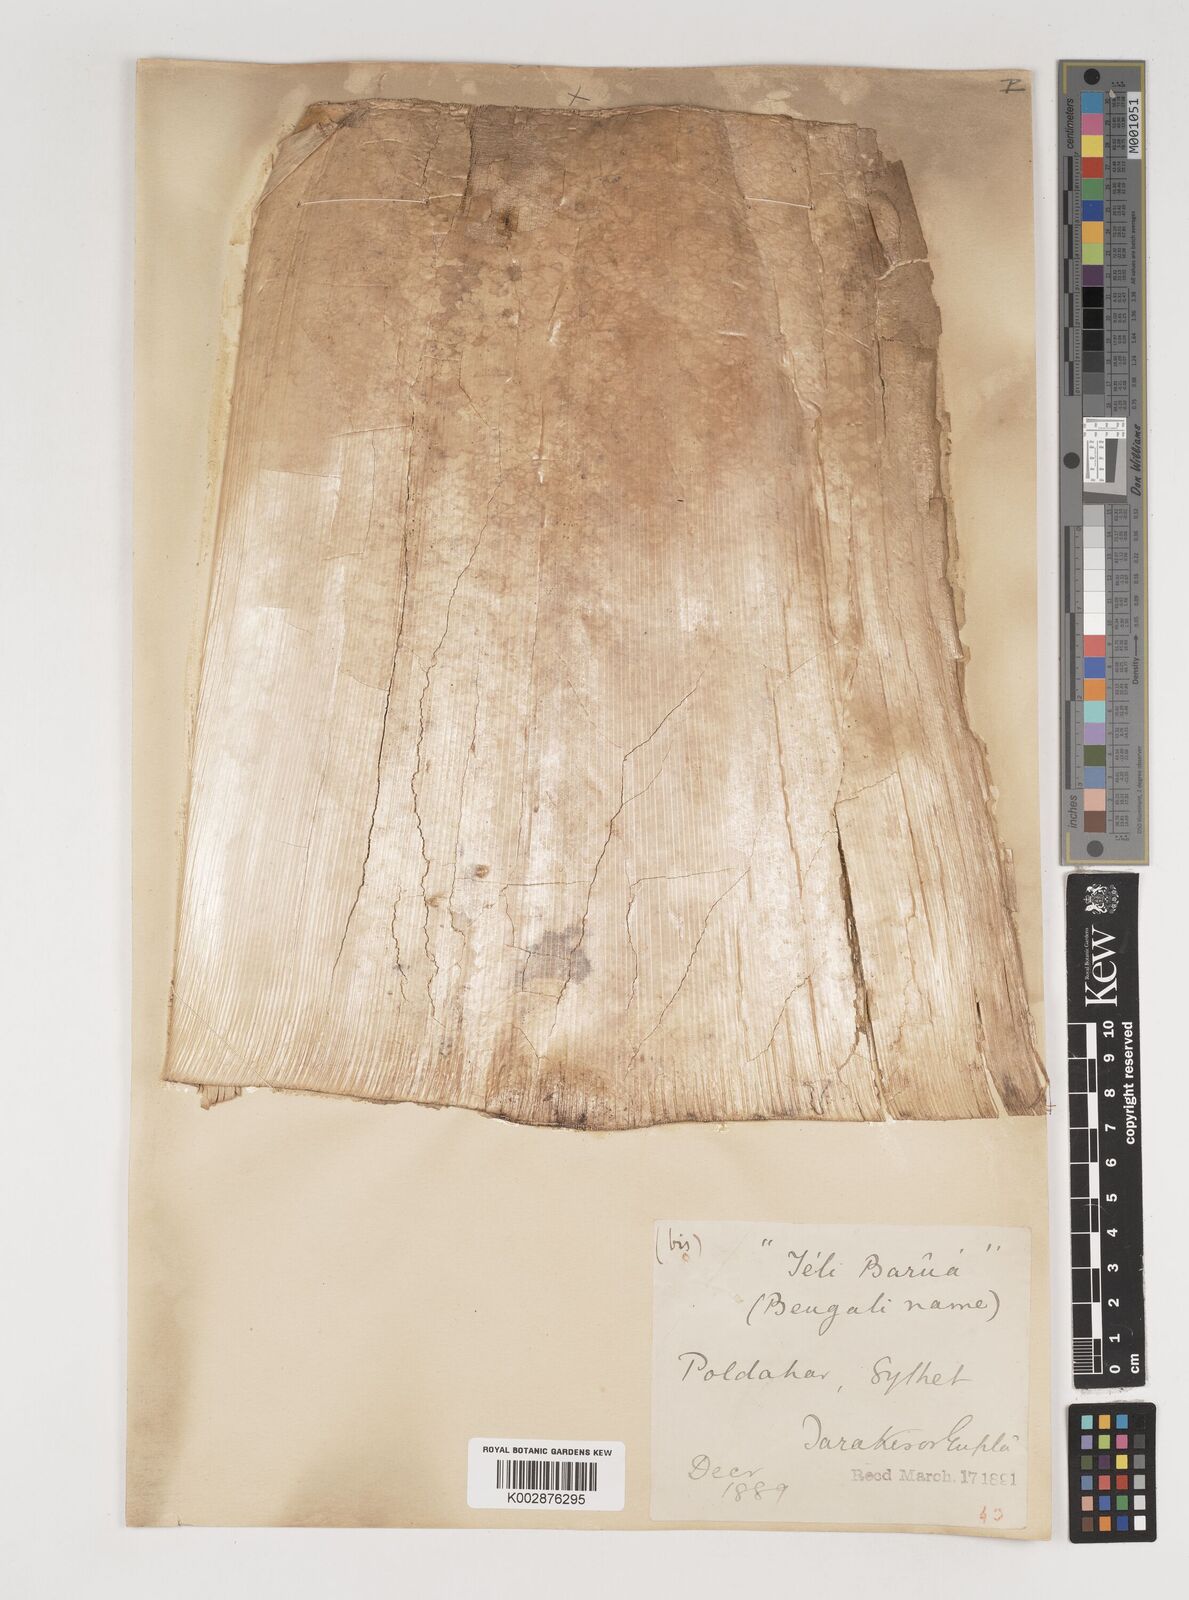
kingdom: Plantae
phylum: Tracheophyta
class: Liliopsida
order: Poales
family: Poaceae
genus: Bambusa
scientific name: Bambusa balcooa
